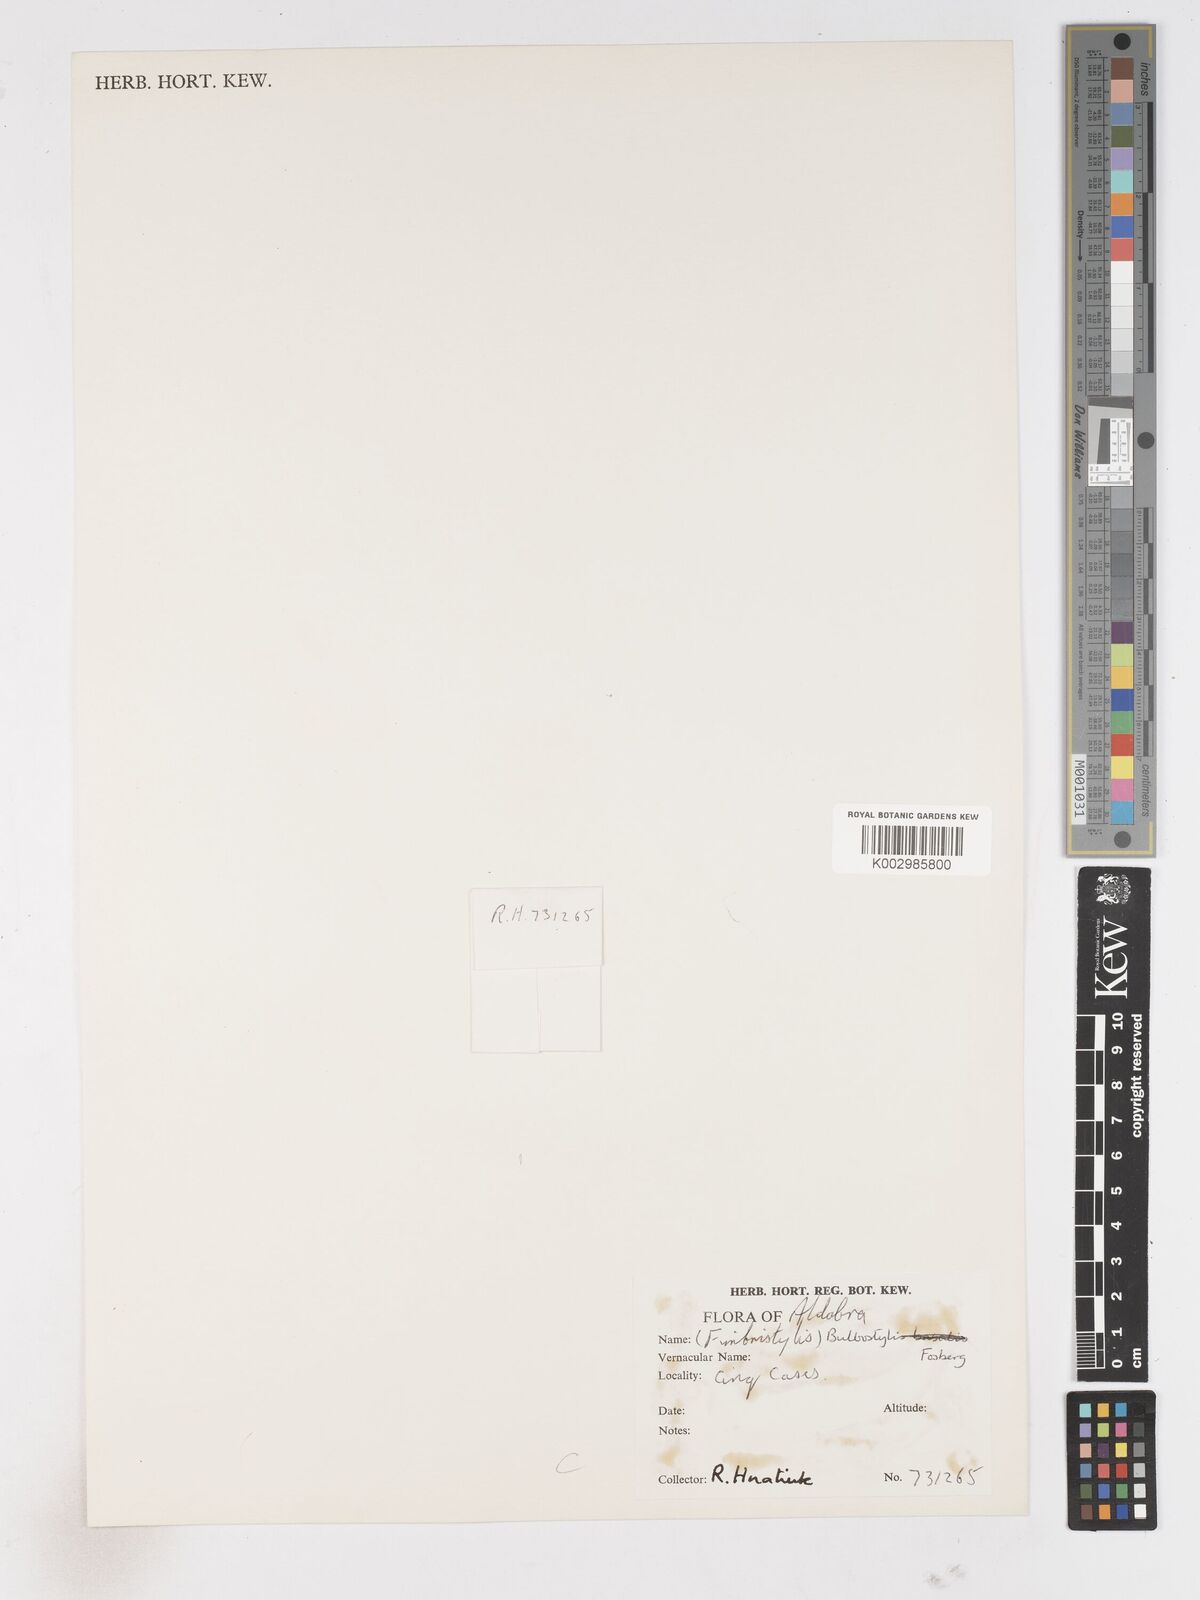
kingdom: Plantae
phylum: Tracheophyta
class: Liliopsida
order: Poales
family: Cyperaceae
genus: Fimbristylis
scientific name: Fimbristylis
